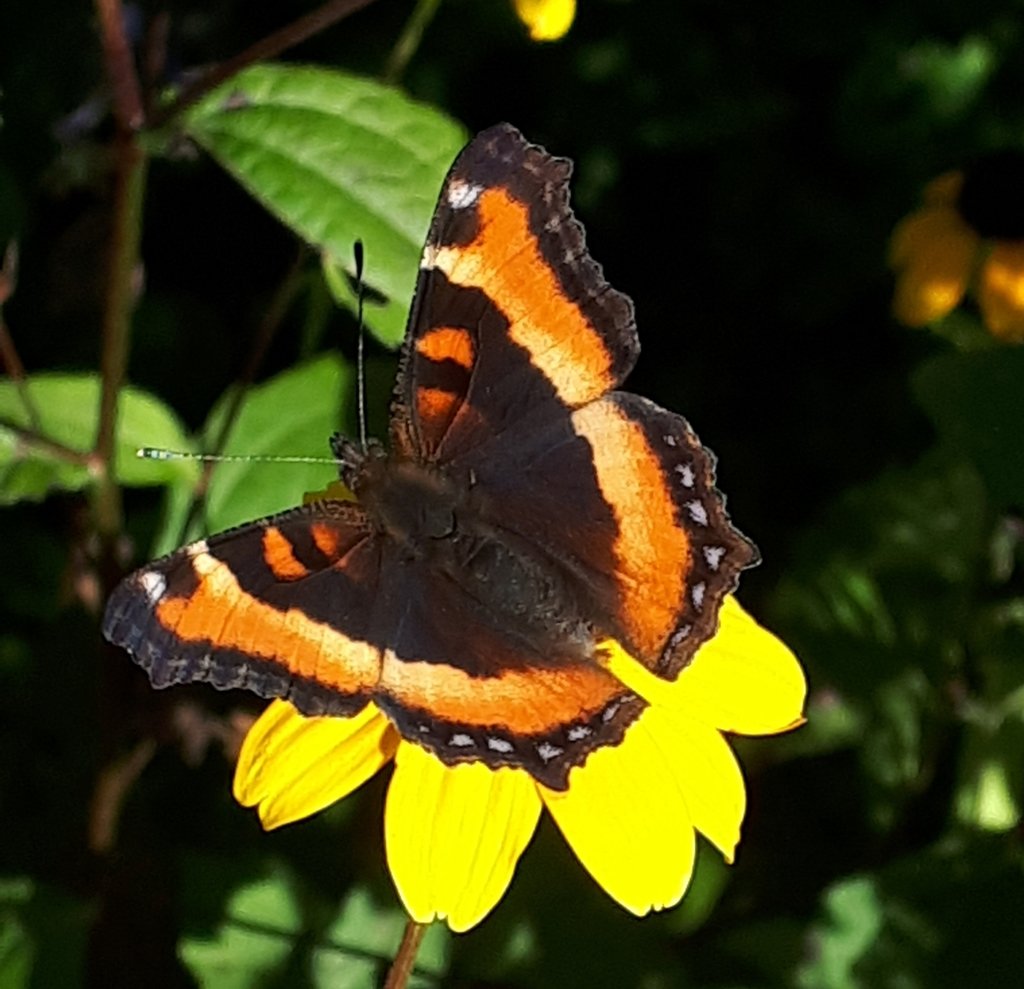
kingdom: Animalia
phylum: Arthropoda
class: Insecta
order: Lepidoptera
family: Nymphalidae
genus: Aglais
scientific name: Aglais milberti
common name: Milbert's Tortoiseshell
